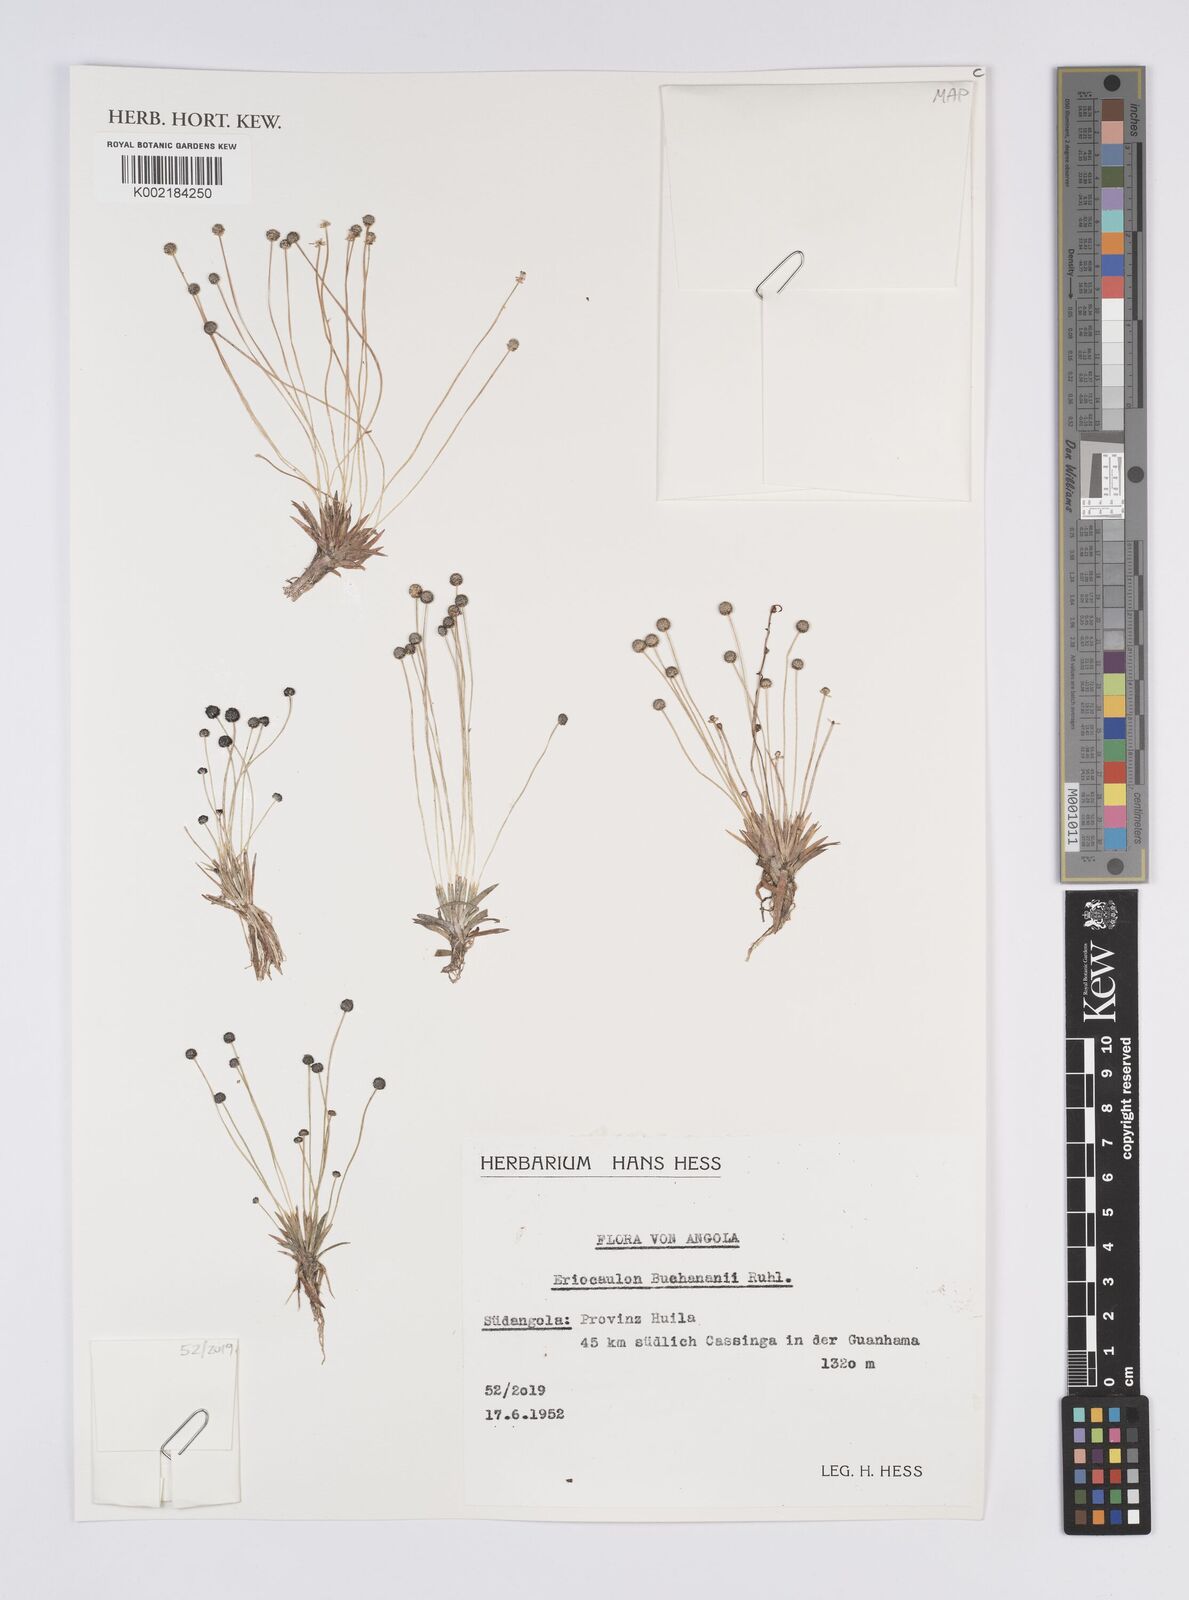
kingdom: Plantae
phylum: Tracheophyta
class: Liliopsida
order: Poales
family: Eriocaulaceae
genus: Eriocaulon
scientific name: Eriocaulon buchananii
